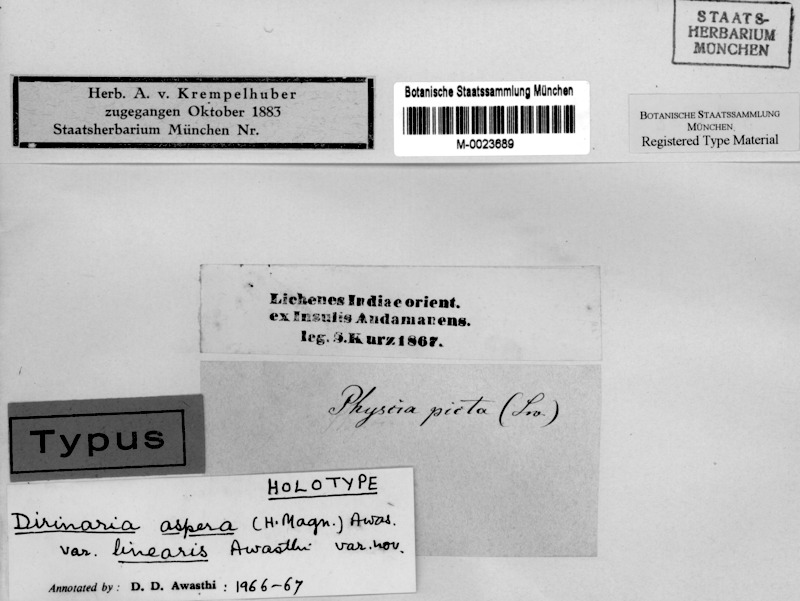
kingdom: Fungi
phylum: Ascomycota
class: Lecanoromycetes
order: Caliciales
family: Caliciaceae
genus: Dirinaria
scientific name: Dirinaria aspera
